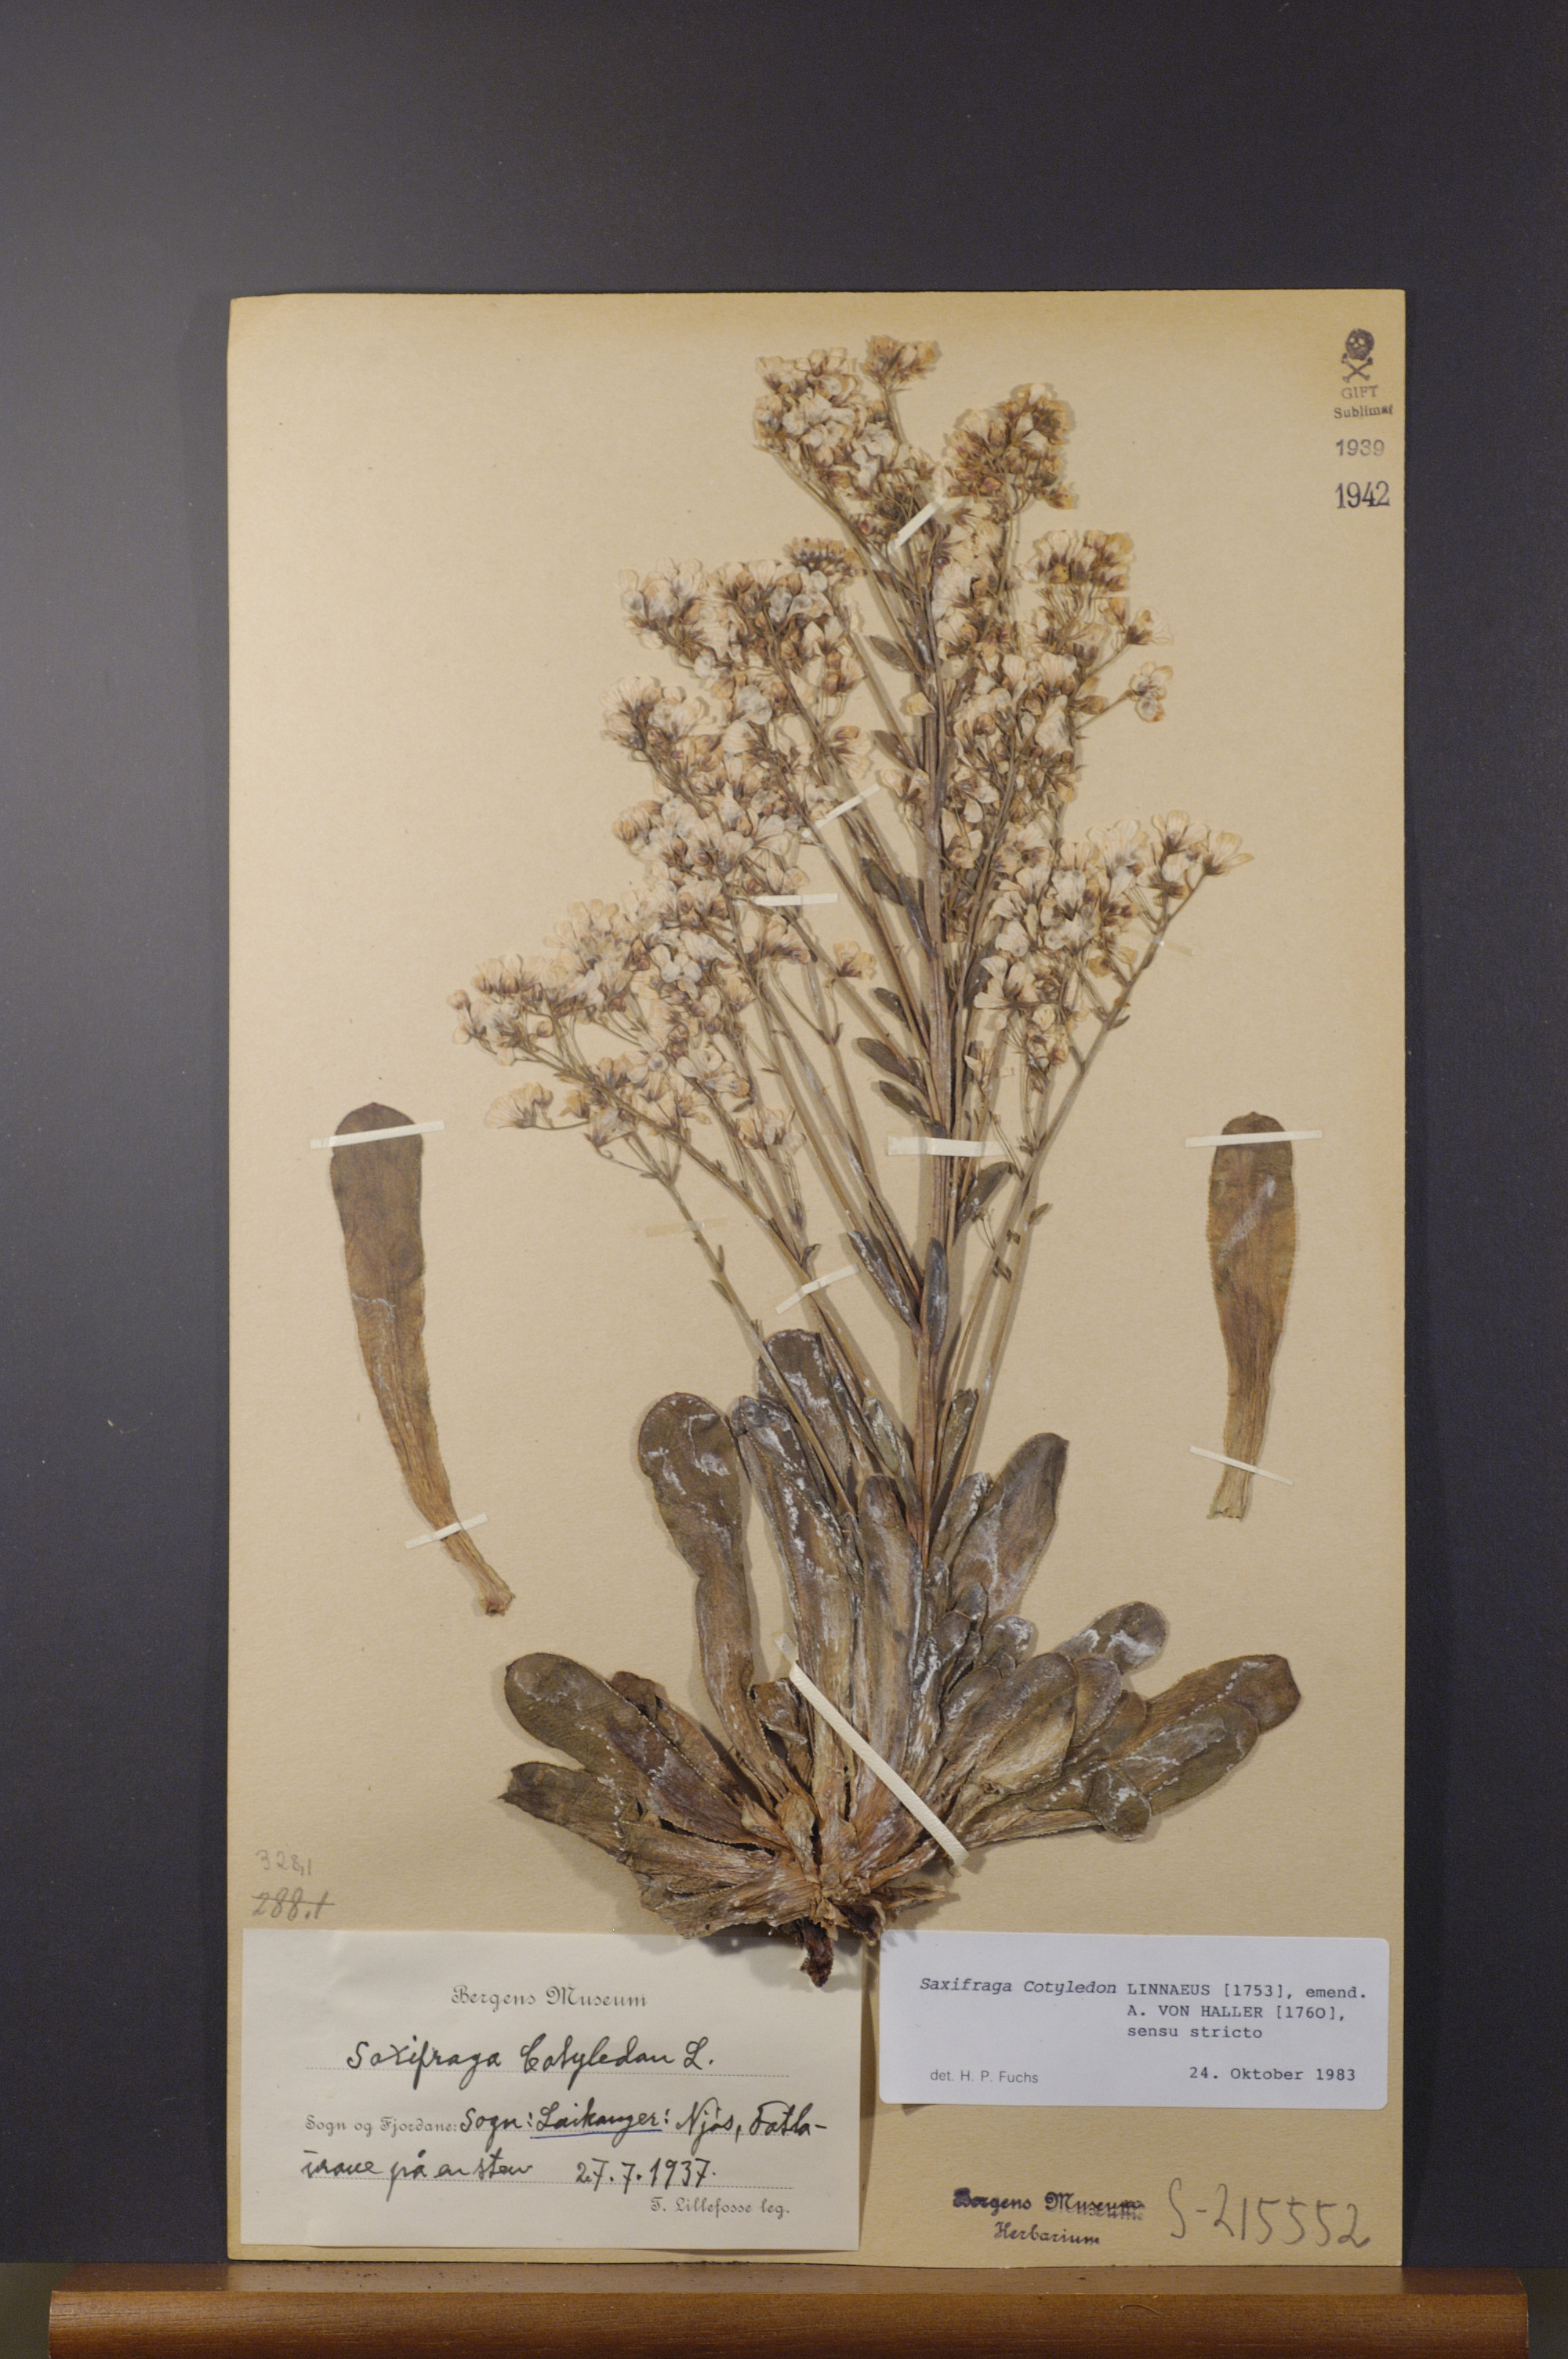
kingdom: Plantae
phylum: Tracheophyta
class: Magnoliopsida
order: Saxifragales
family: Saxifragaceae
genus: Saxifraga
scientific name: Saxifraga cotyledon
